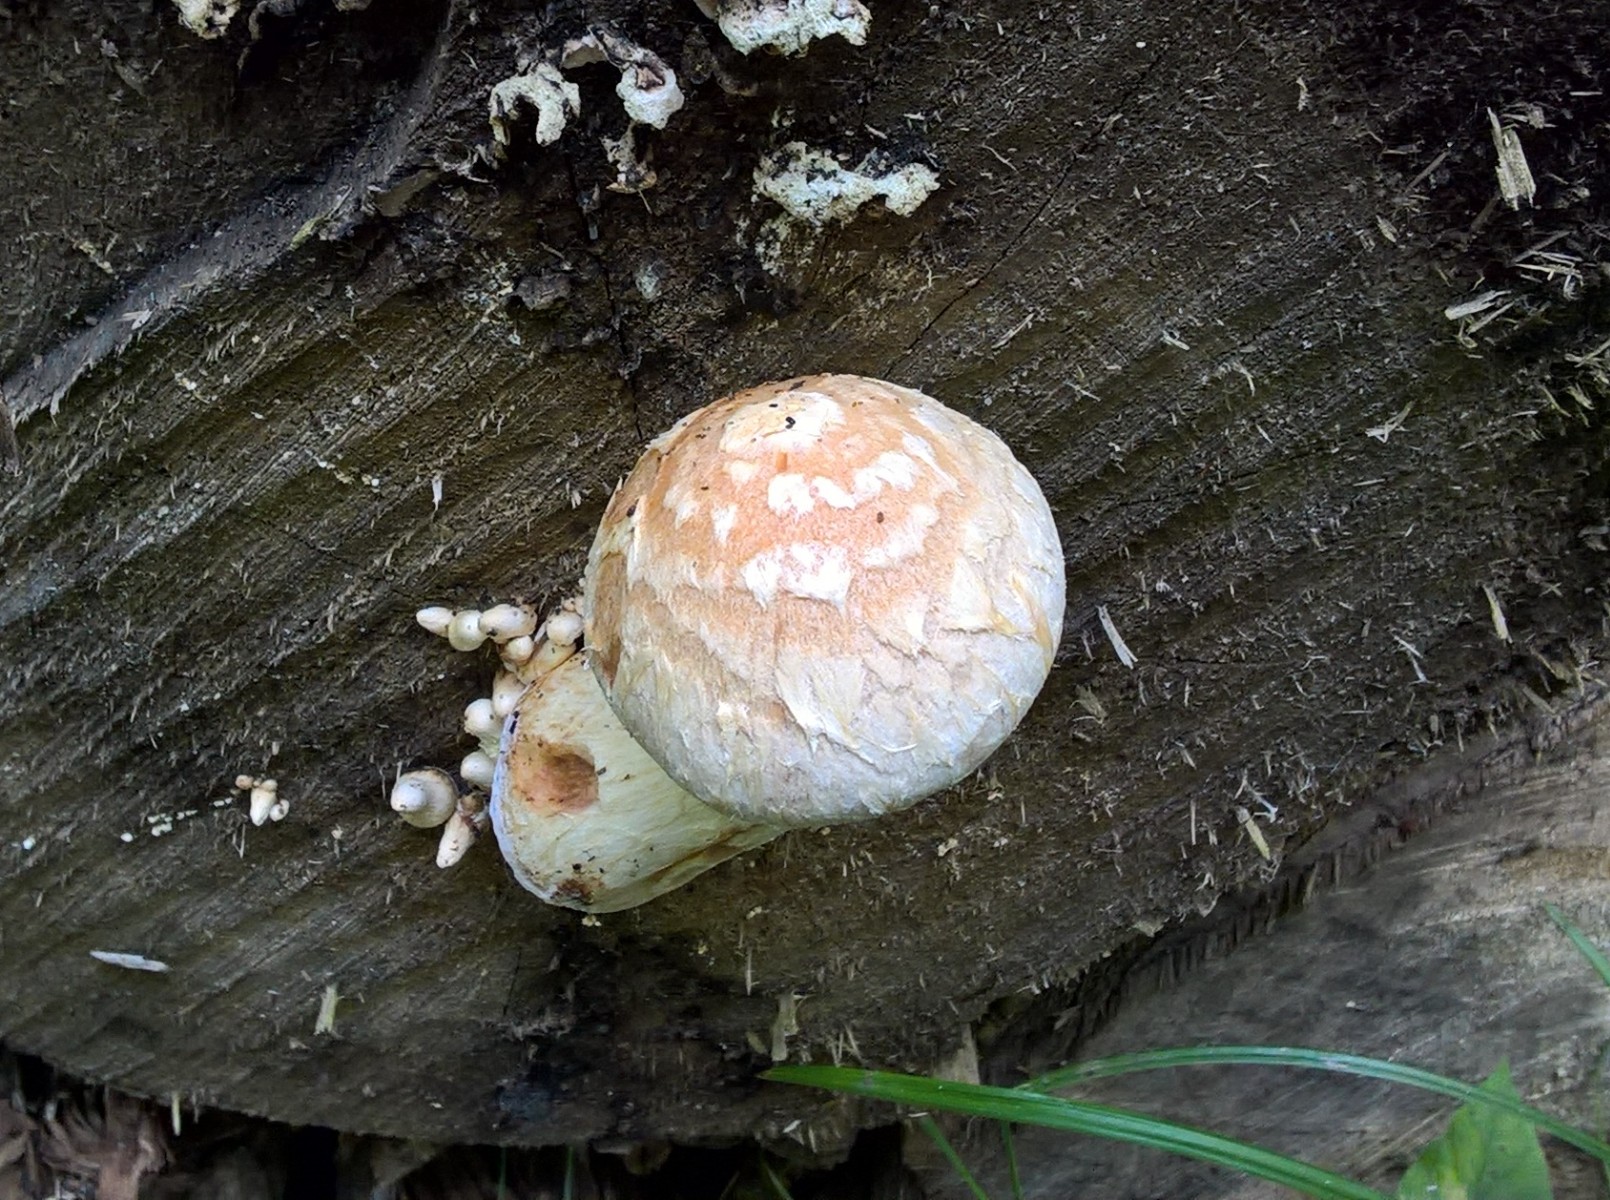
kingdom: Fungi
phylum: Basidiomycota
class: Agaricomycetes
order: Agaricales
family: Strophariaceae
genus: Pholiota
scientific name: Pholiota populnea
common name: poppel-kæmpeskælhat
